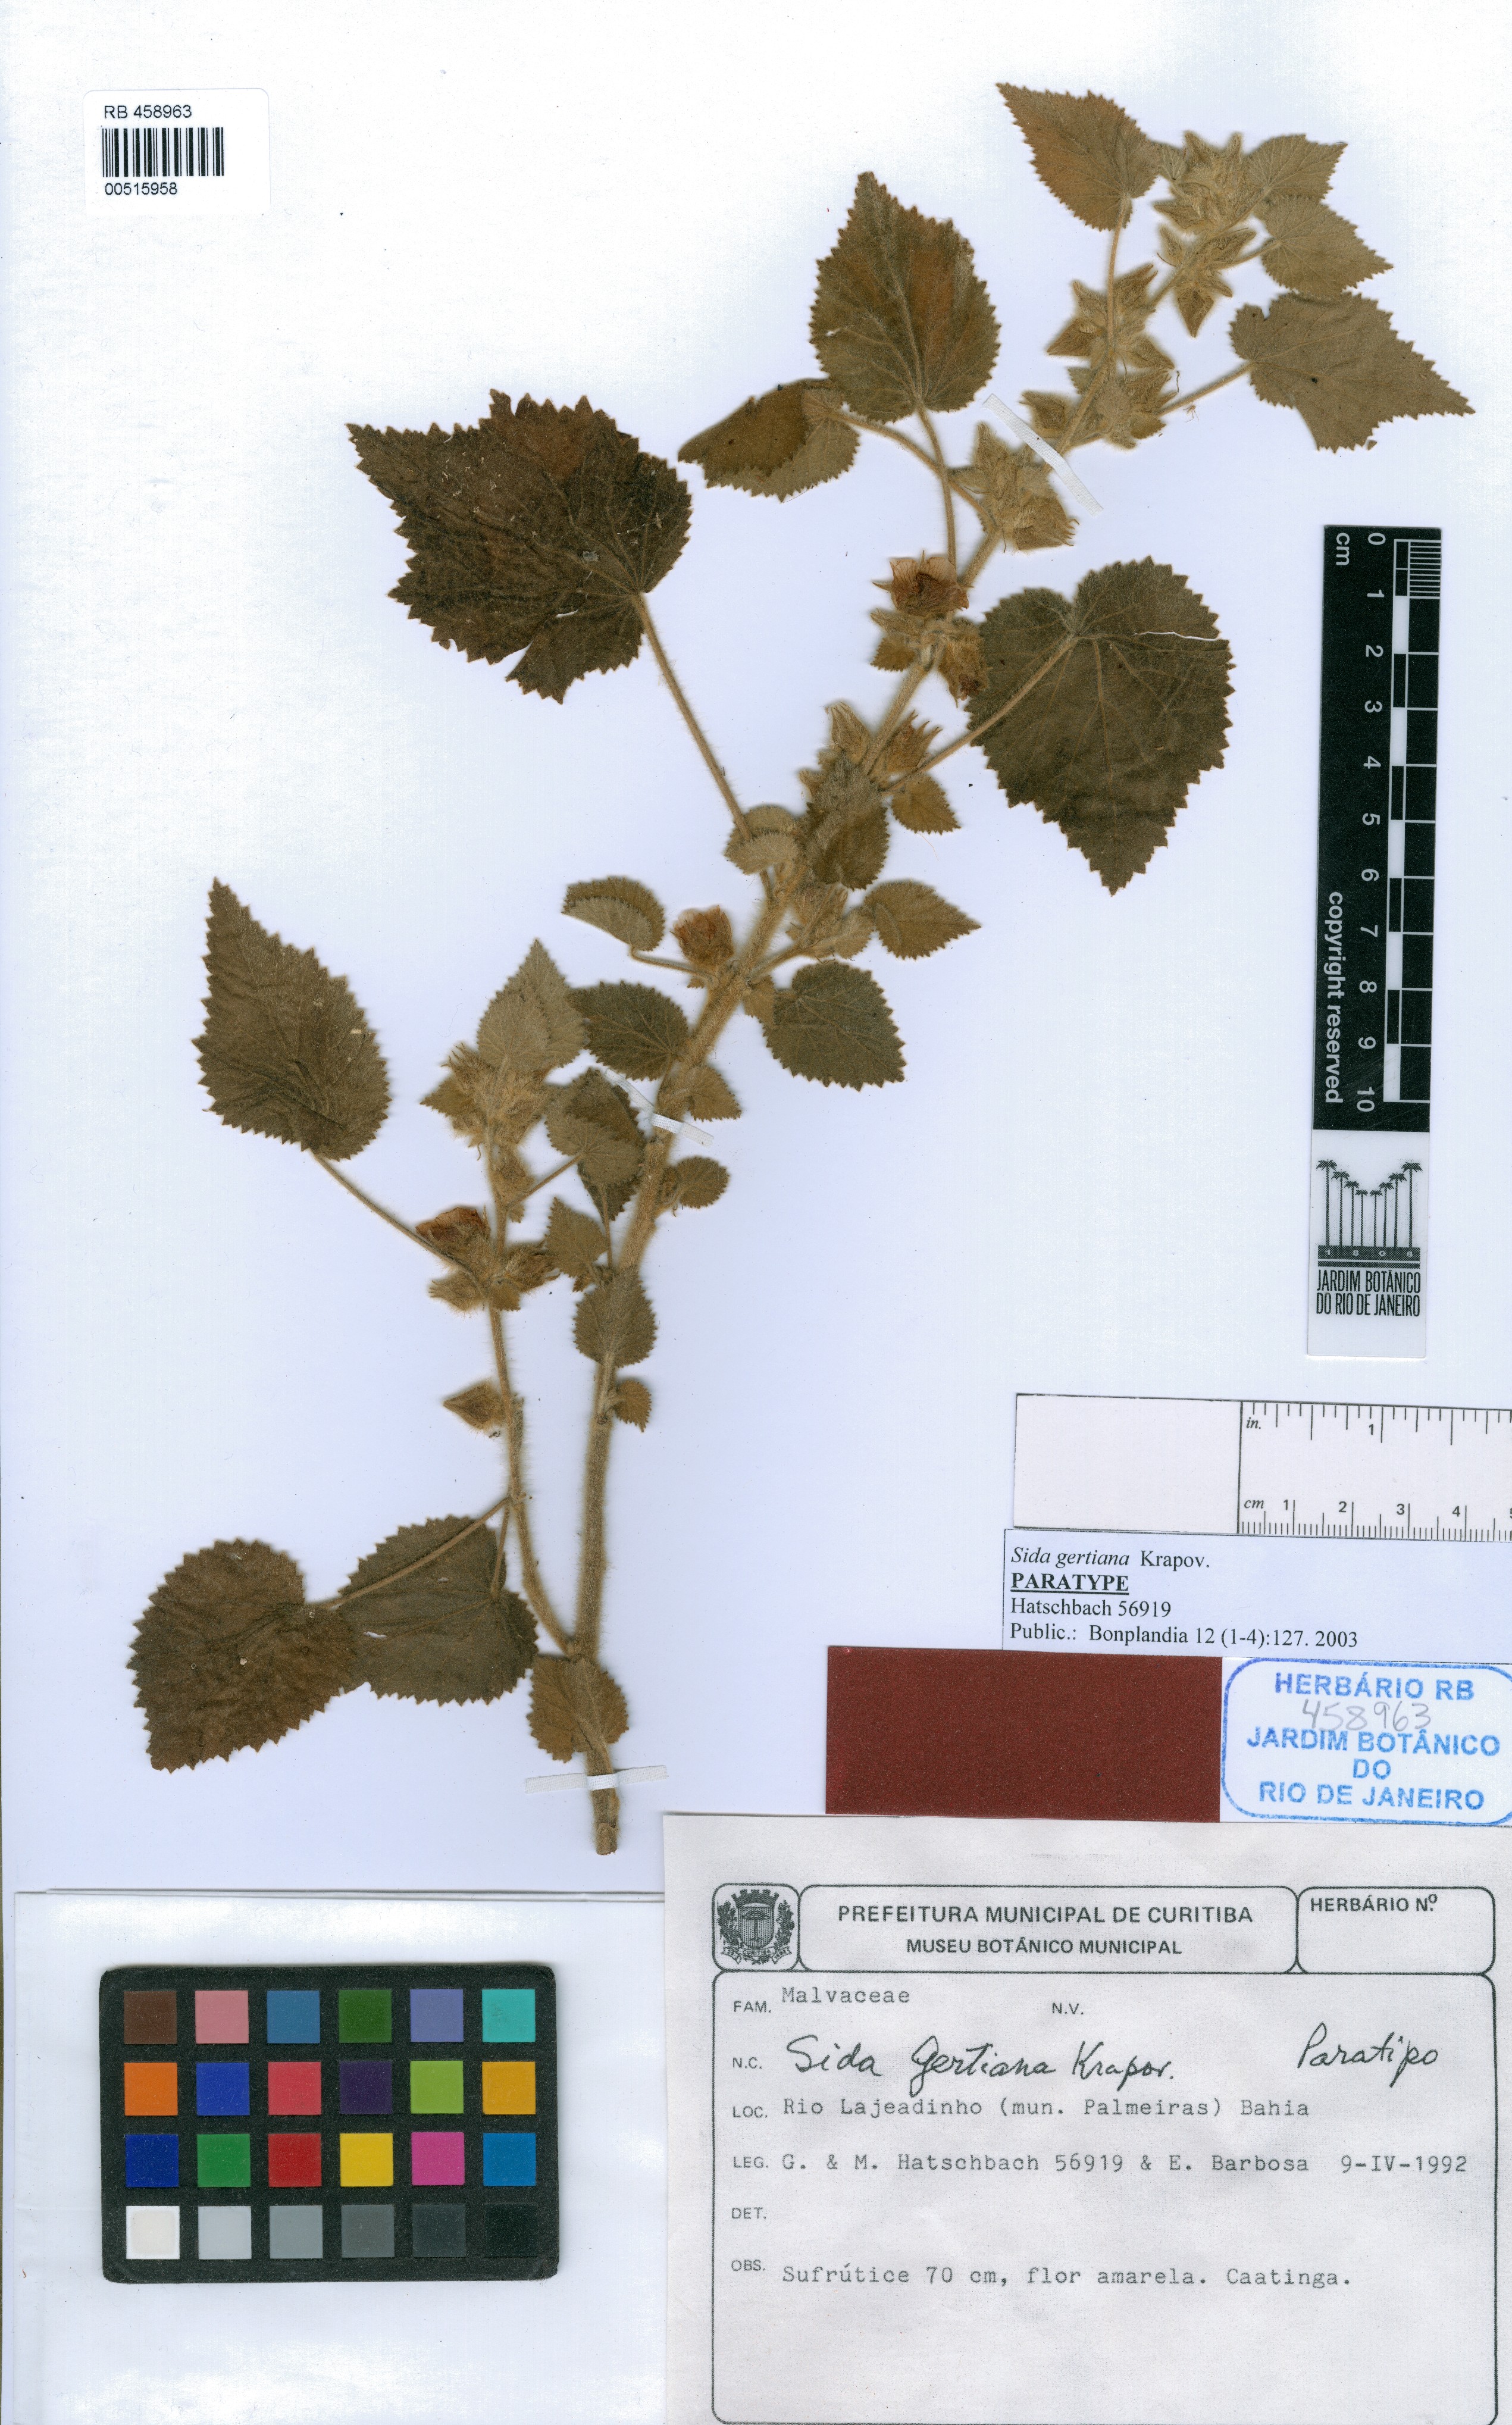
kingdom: Plantae
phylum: Tracheophyta
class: Magnoliopsida
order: Malvales
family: Malvaceae
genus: Sida
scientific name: Sida gertiana
